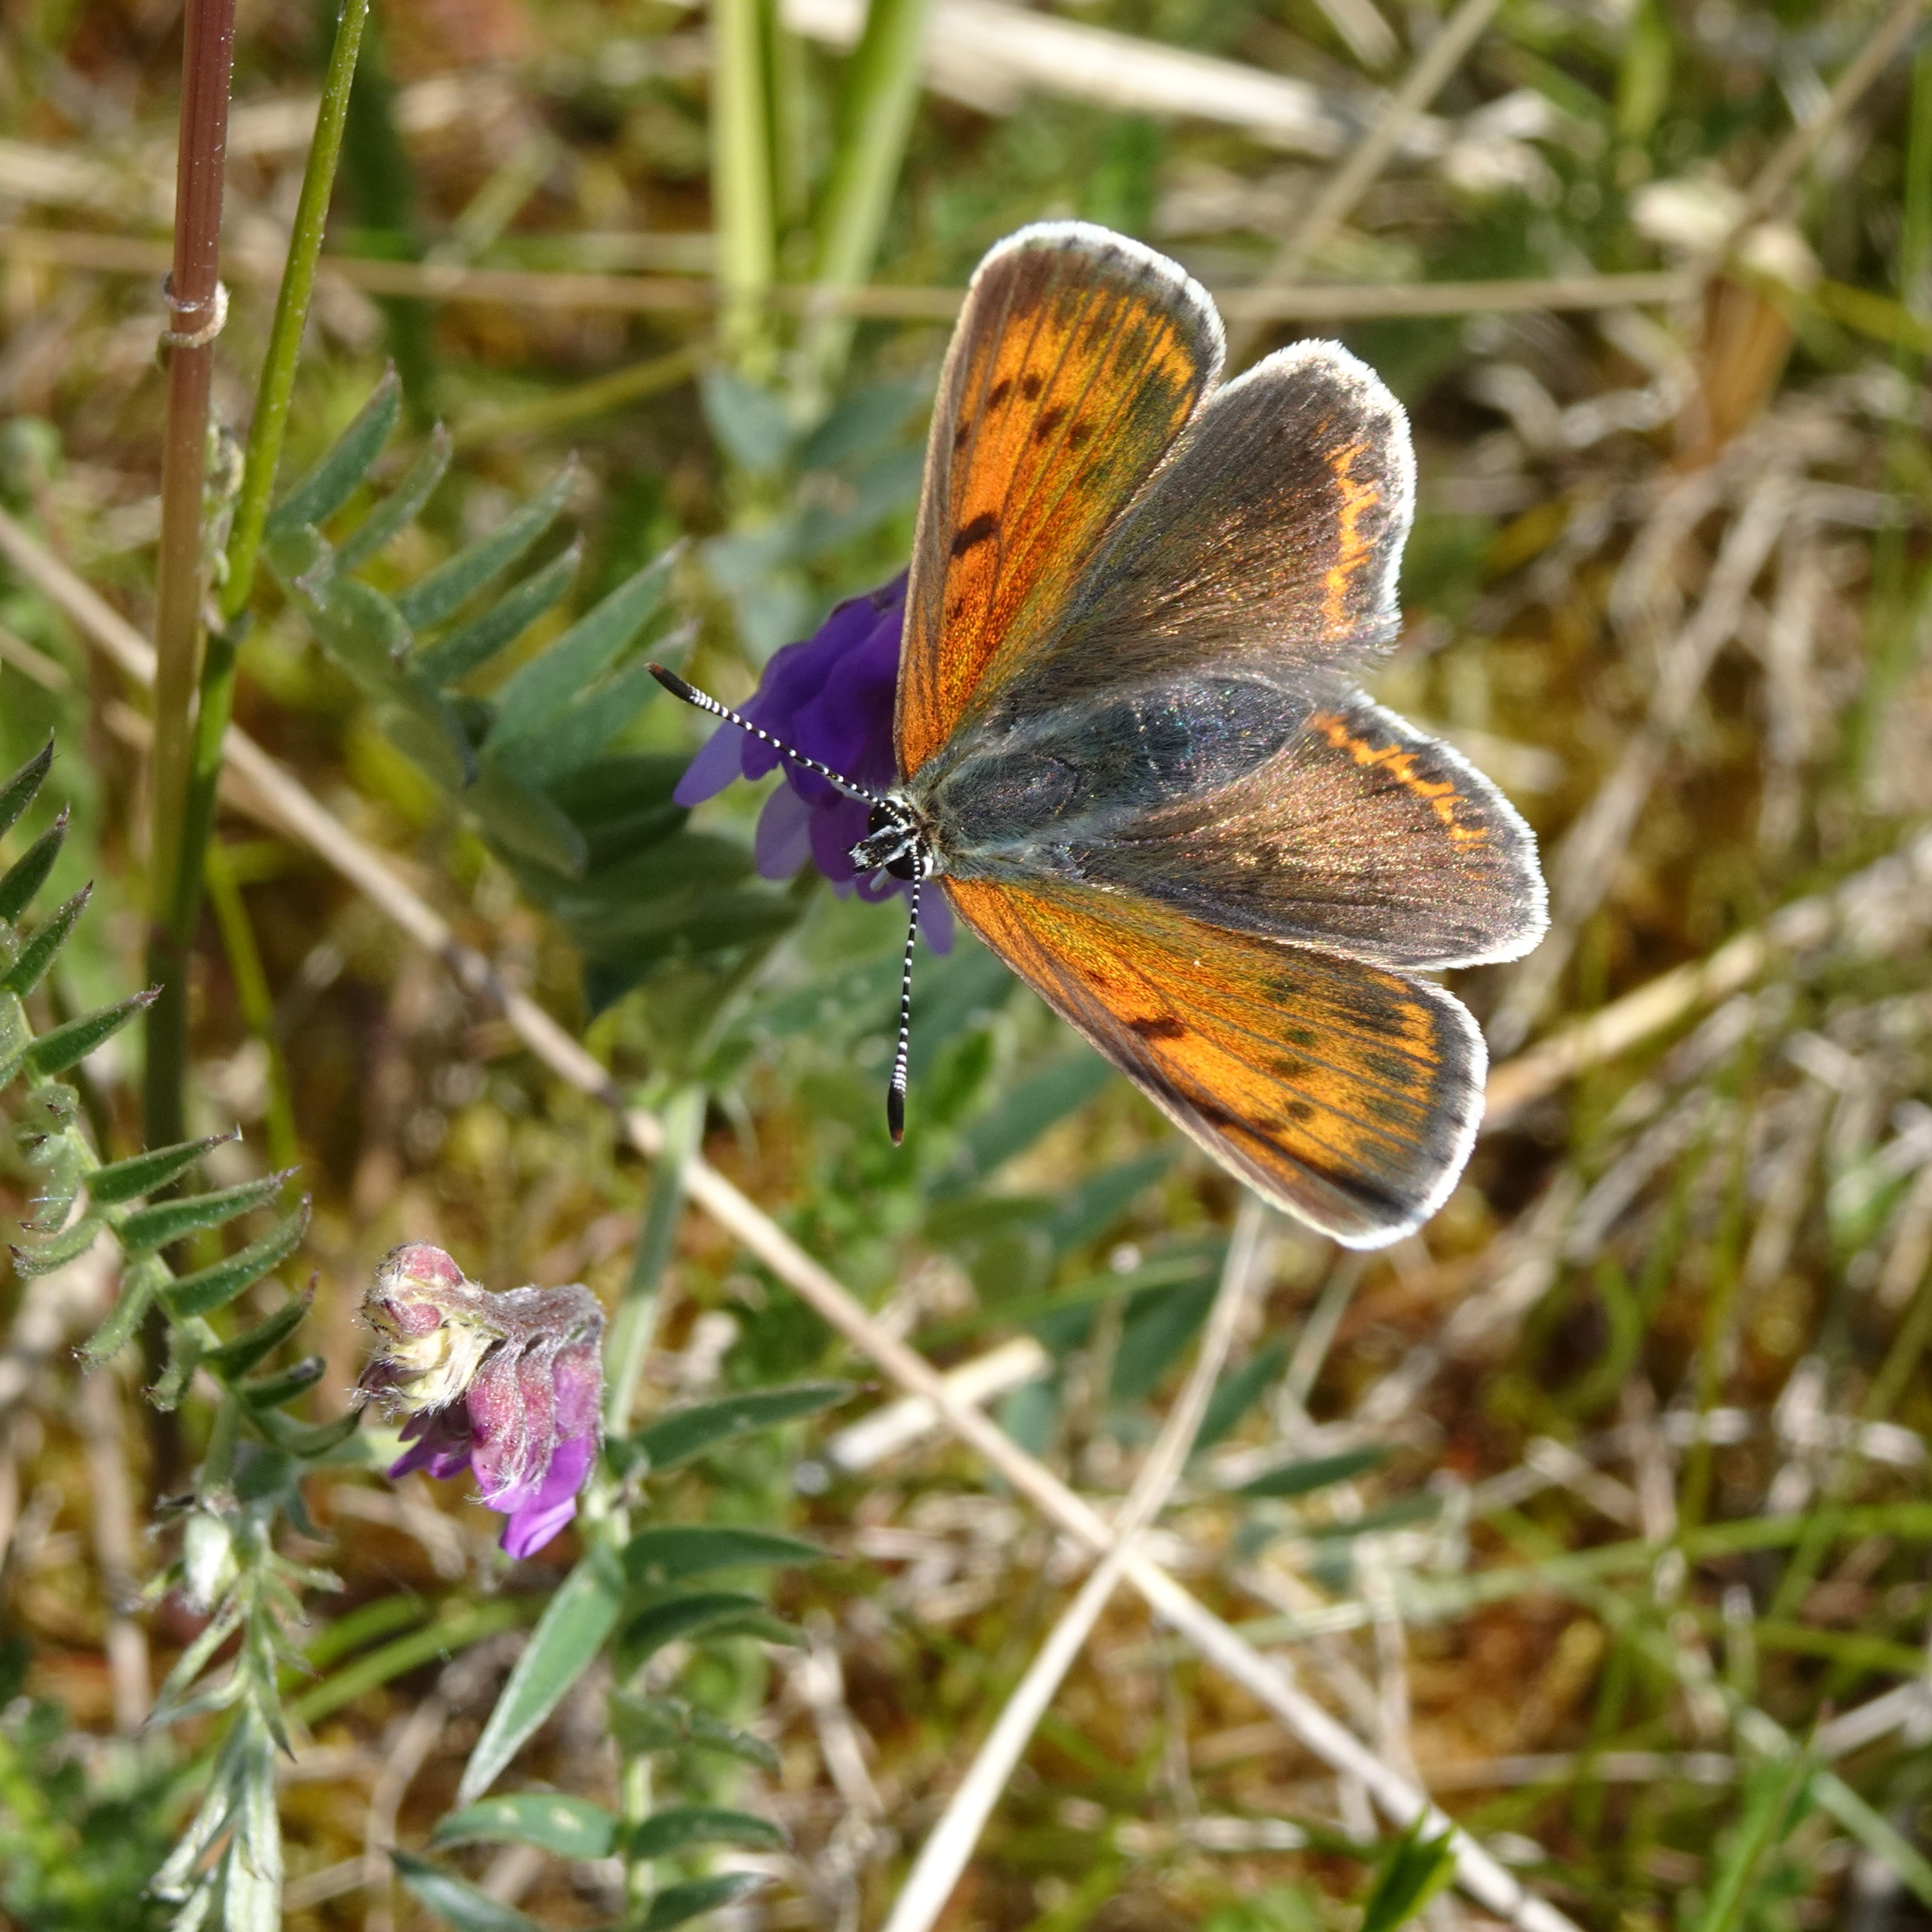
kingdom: Animalia
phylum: Arthropoda
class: Insecta
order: Lepidoptera
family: Lycaenidae
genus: Palaeochrysophanus
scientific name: Palaeochrysophanus hippothoe
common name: Violetrandet ildfugl
